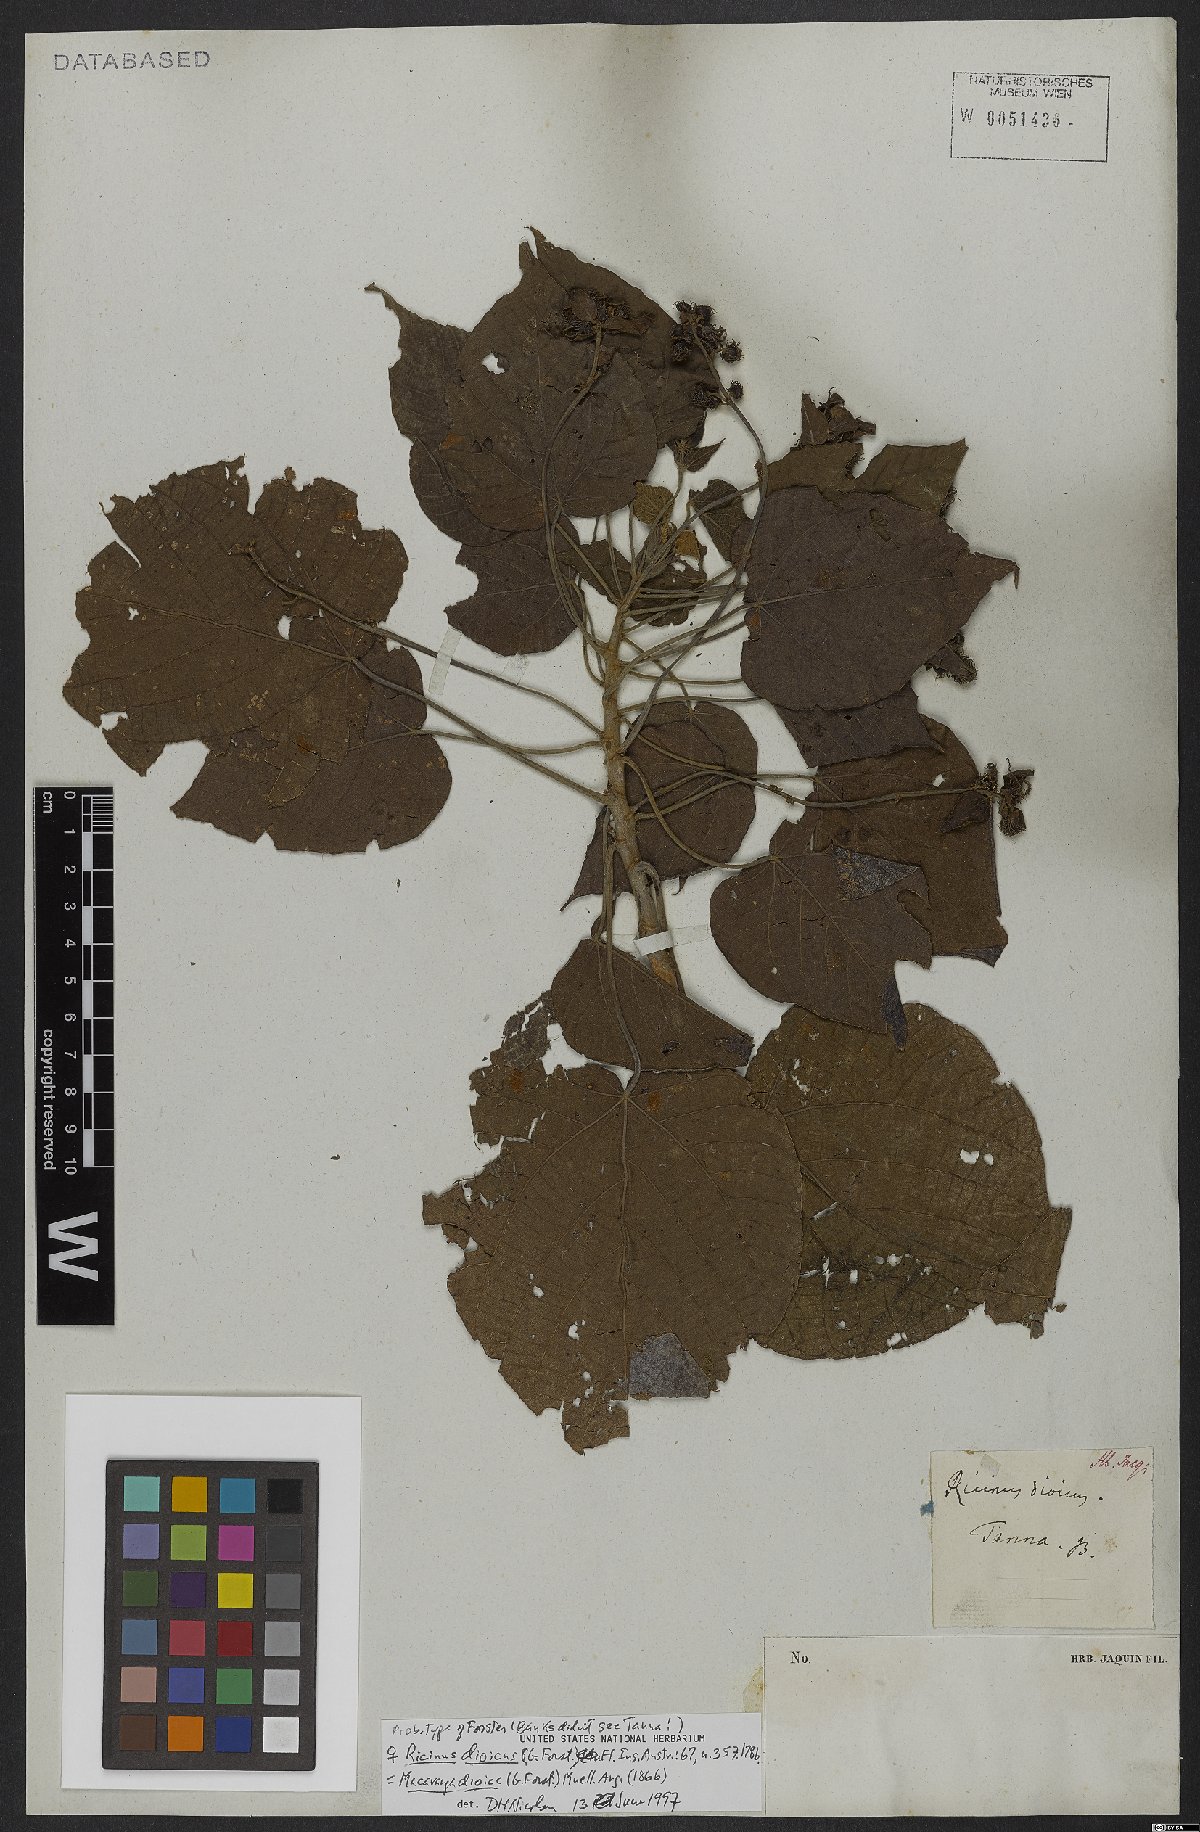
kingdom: Plantae
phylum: Tracheophyta
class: Magnoliopsida
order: Malpighiales
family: Euphorbiaceae
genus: Macaranga
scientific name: Macaranga dioica
